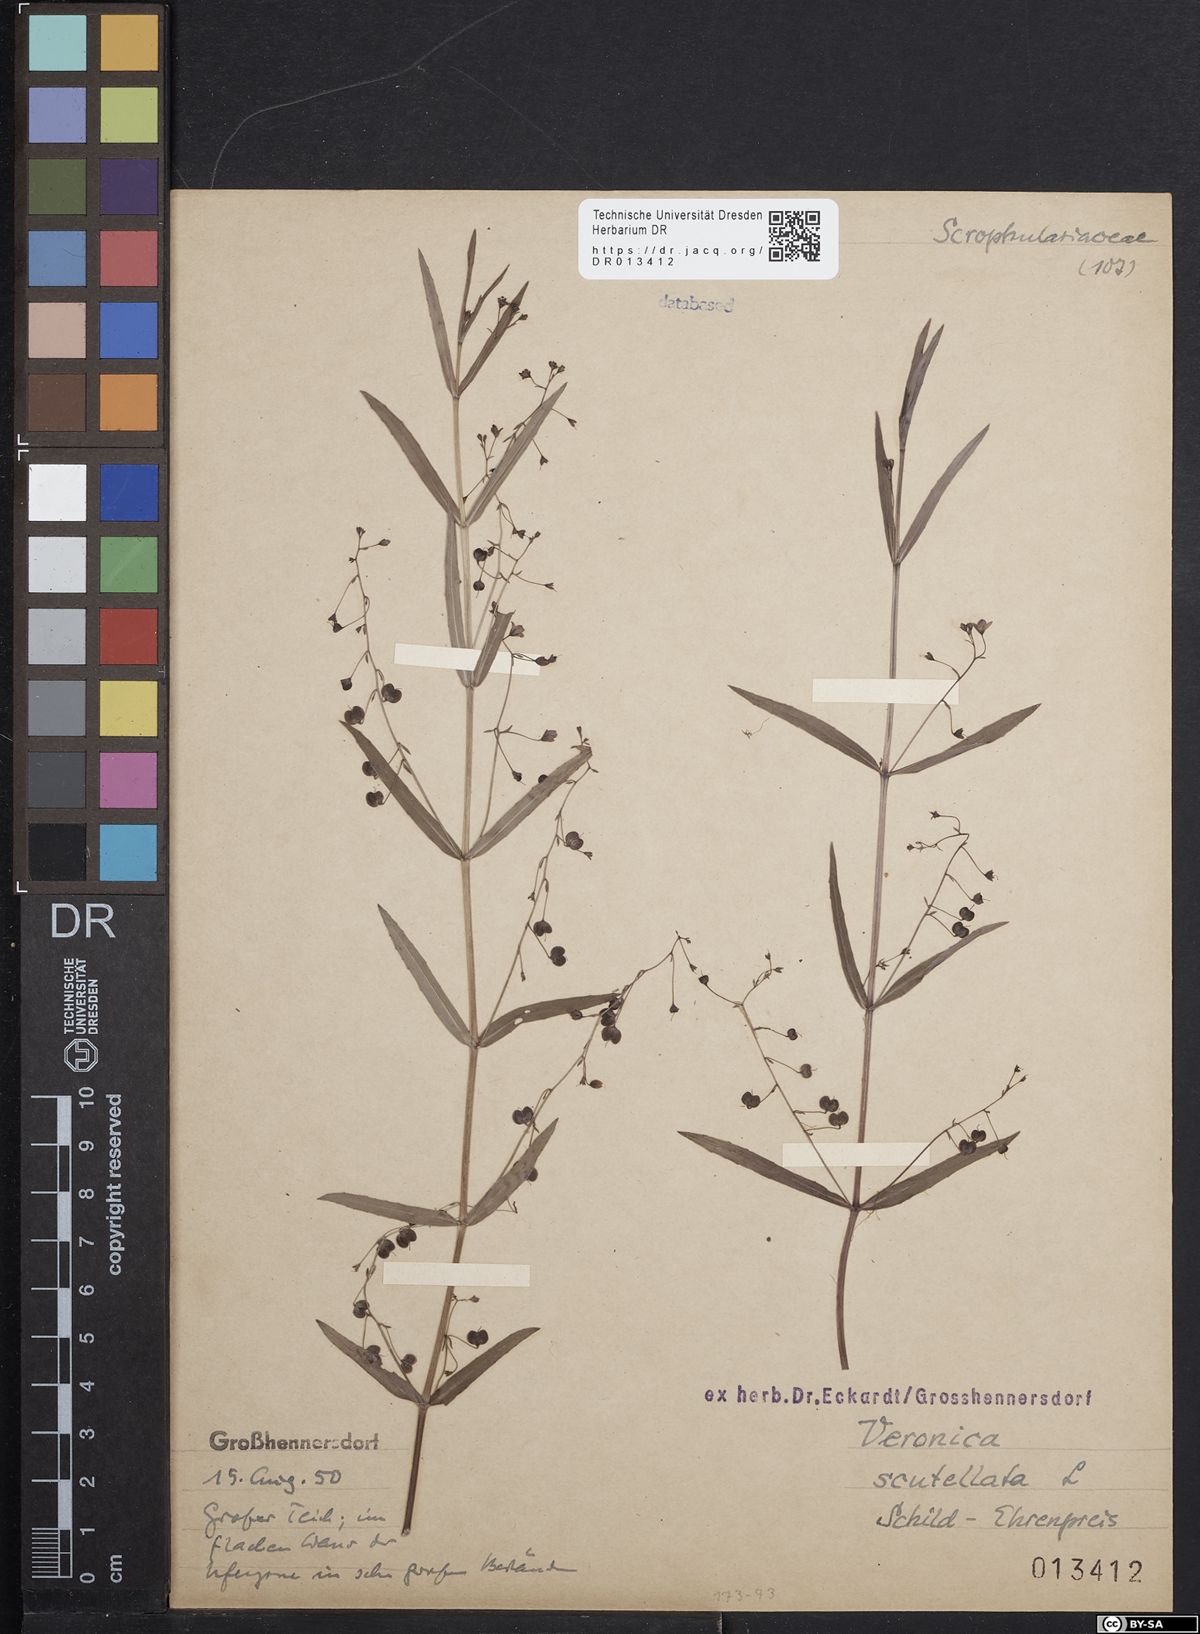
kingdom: Plantae
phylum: Tracheophyta
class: Magnoliopsida
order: Lamiales
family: Plantaginaceae
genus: Veronica
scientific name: Veronica scutellata
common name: Marsh speedwell
